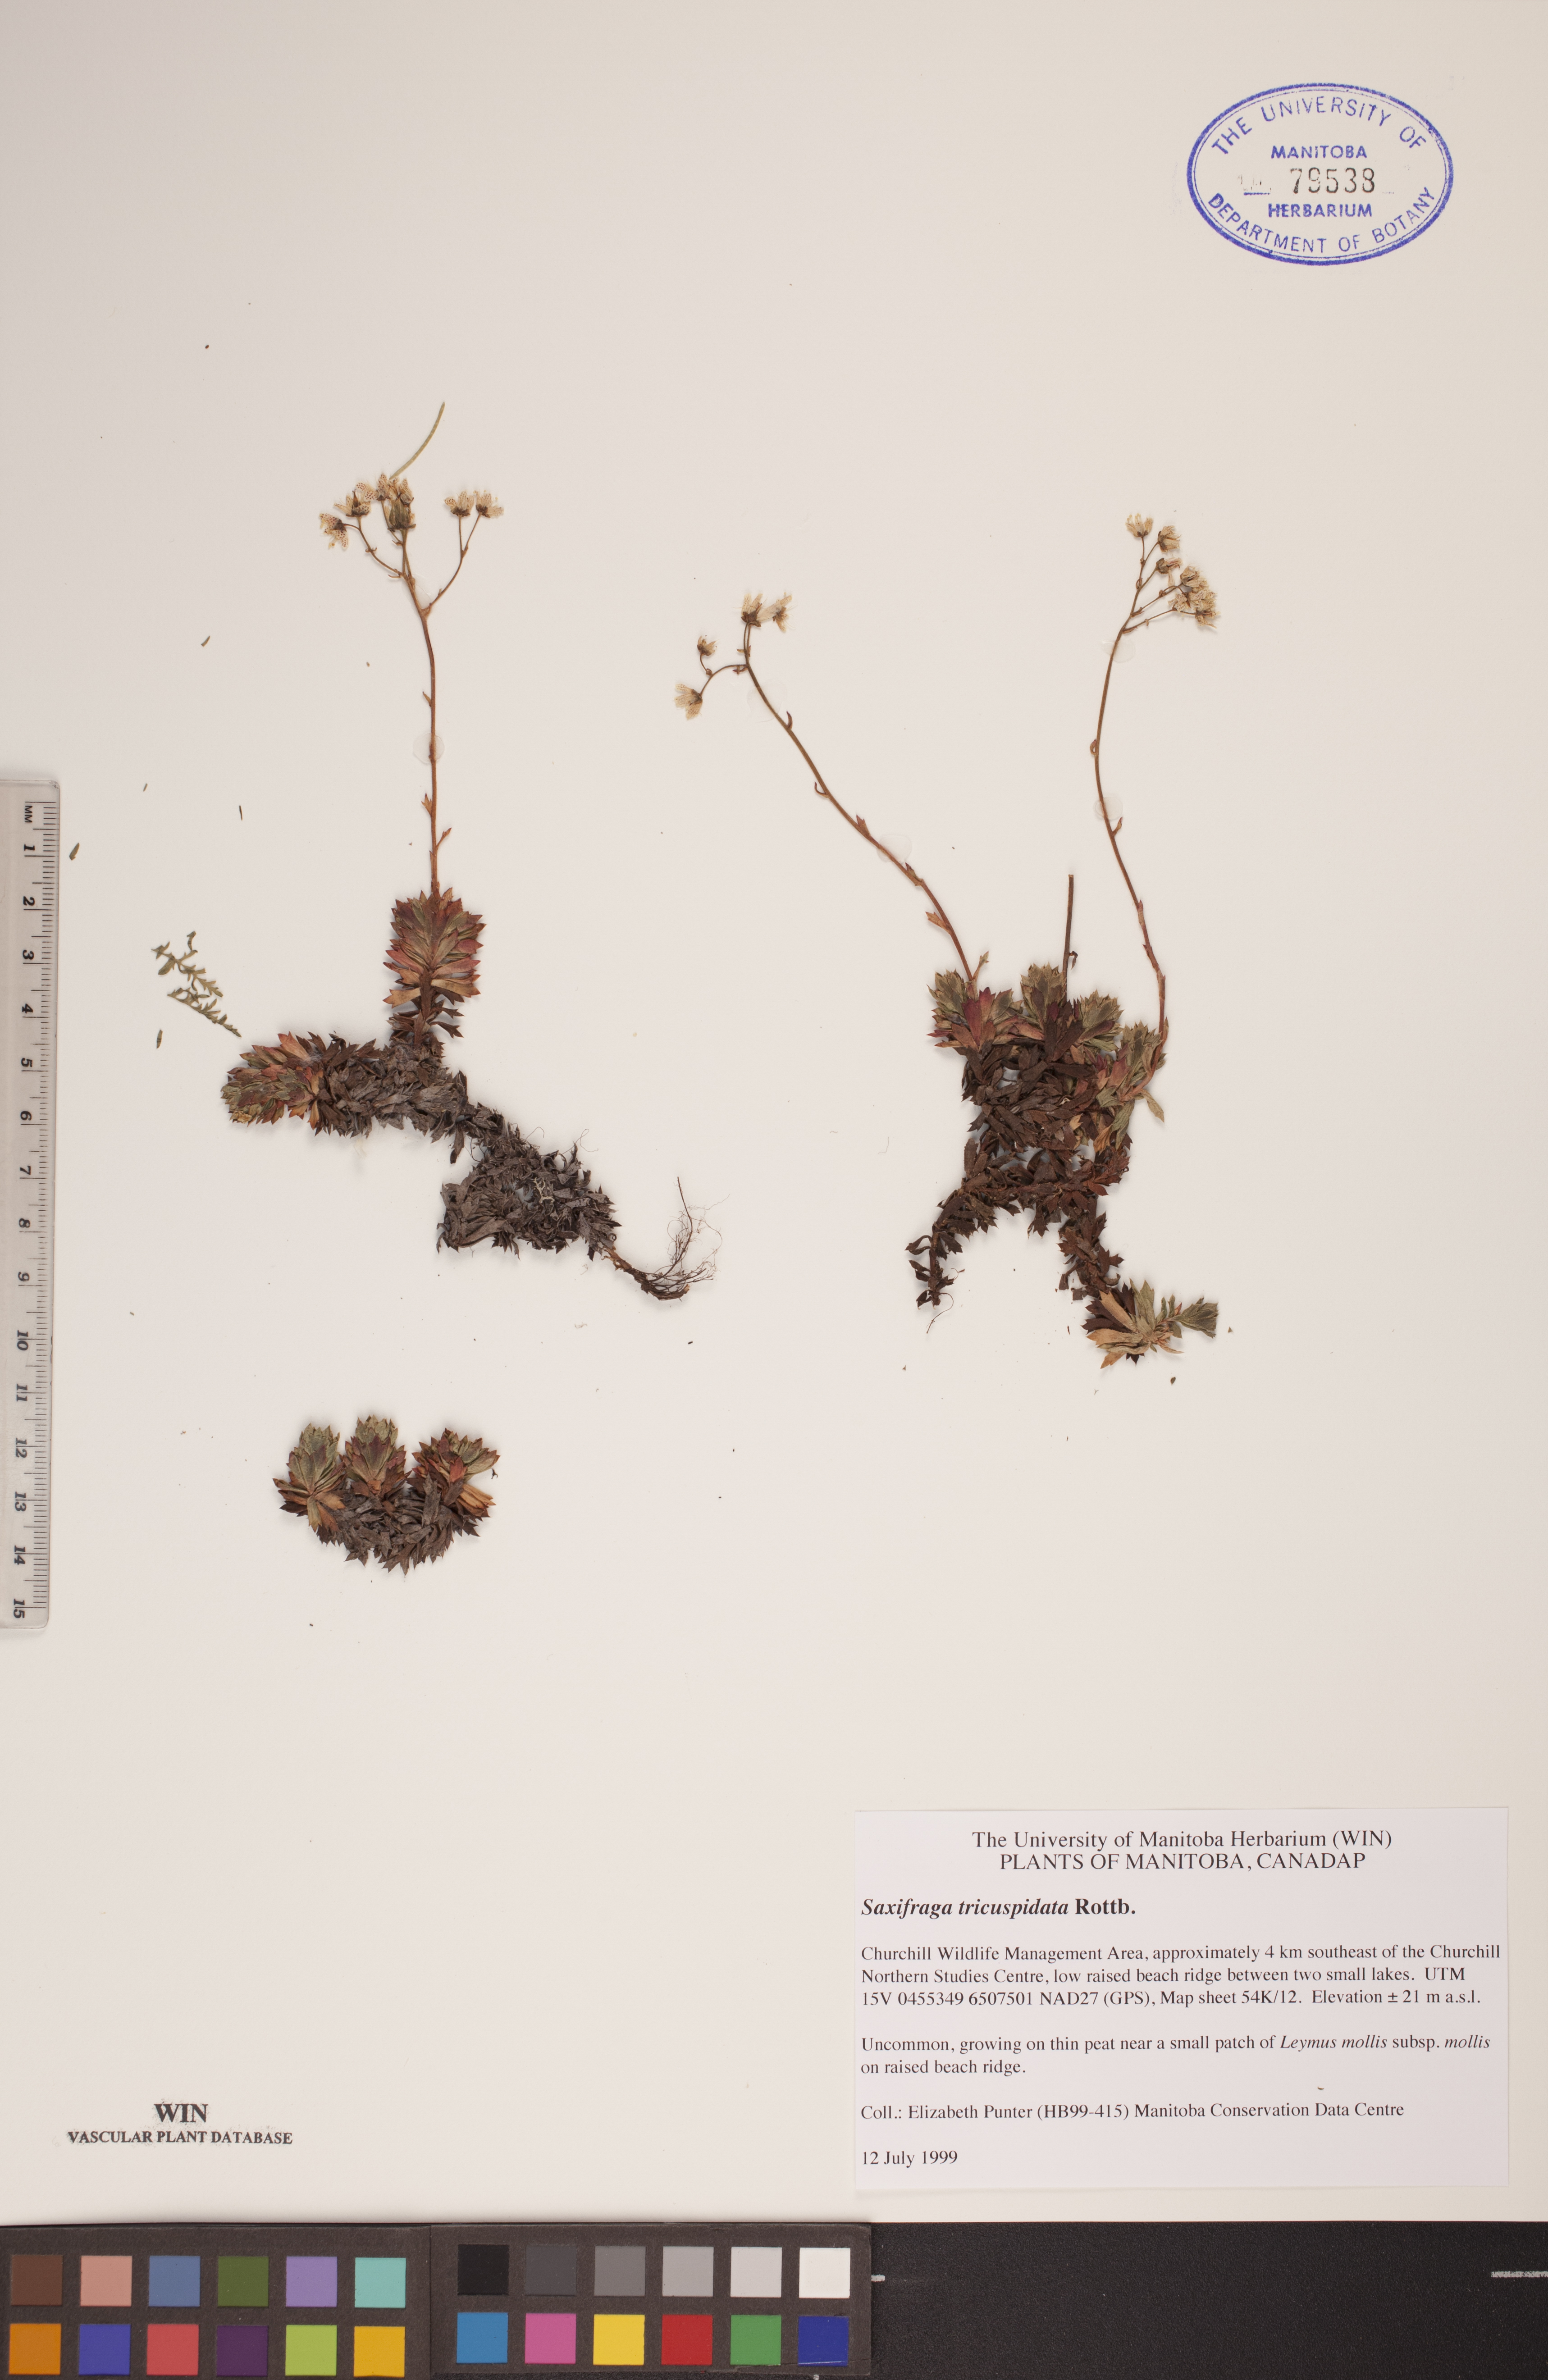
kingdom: Plantae
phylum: Tracheophyta
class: Magnoliopsida
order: Saxifragales
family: Saxifragaceae
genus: Saxifraga
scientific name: Saxifraga tricuspidata
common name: Prickly saxifrage
